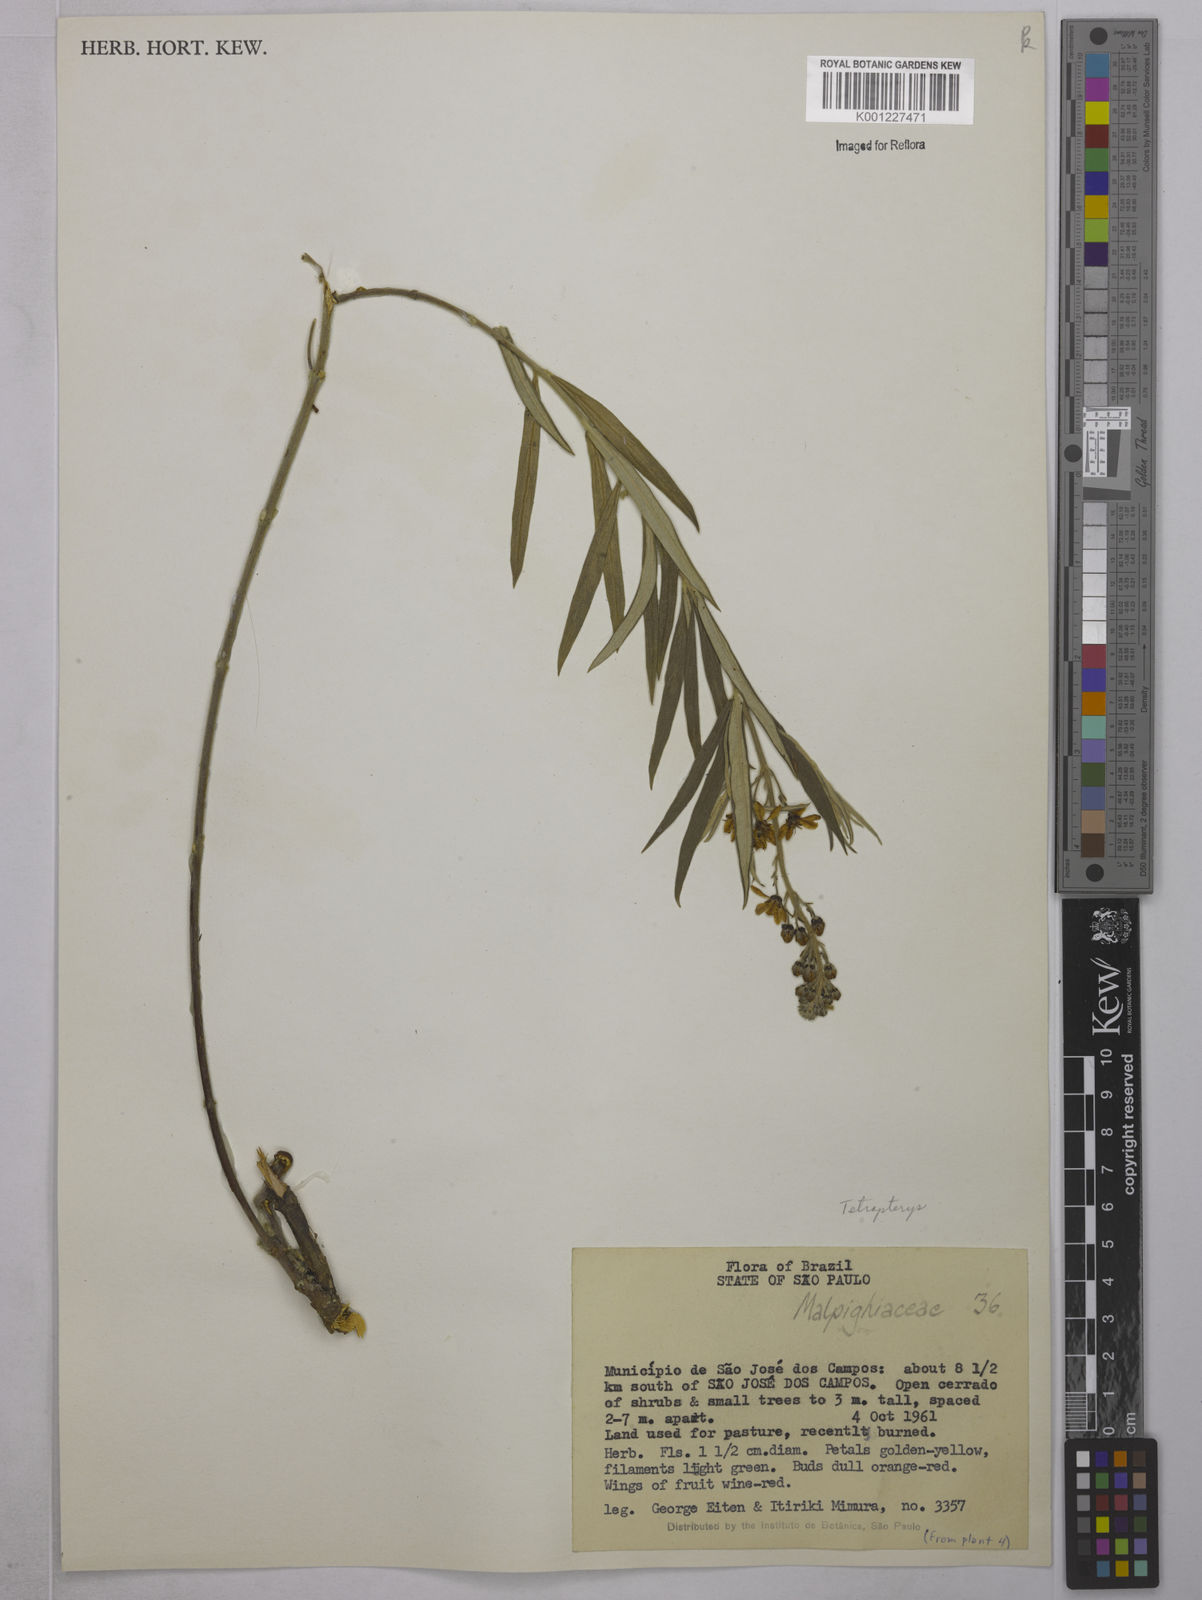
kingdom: Plantae
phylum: Tracheophyta
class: Magnoliopsida
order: Malpighiales
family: Malpighiaceae
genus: Tetrapterys
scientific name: Tetrapterys
